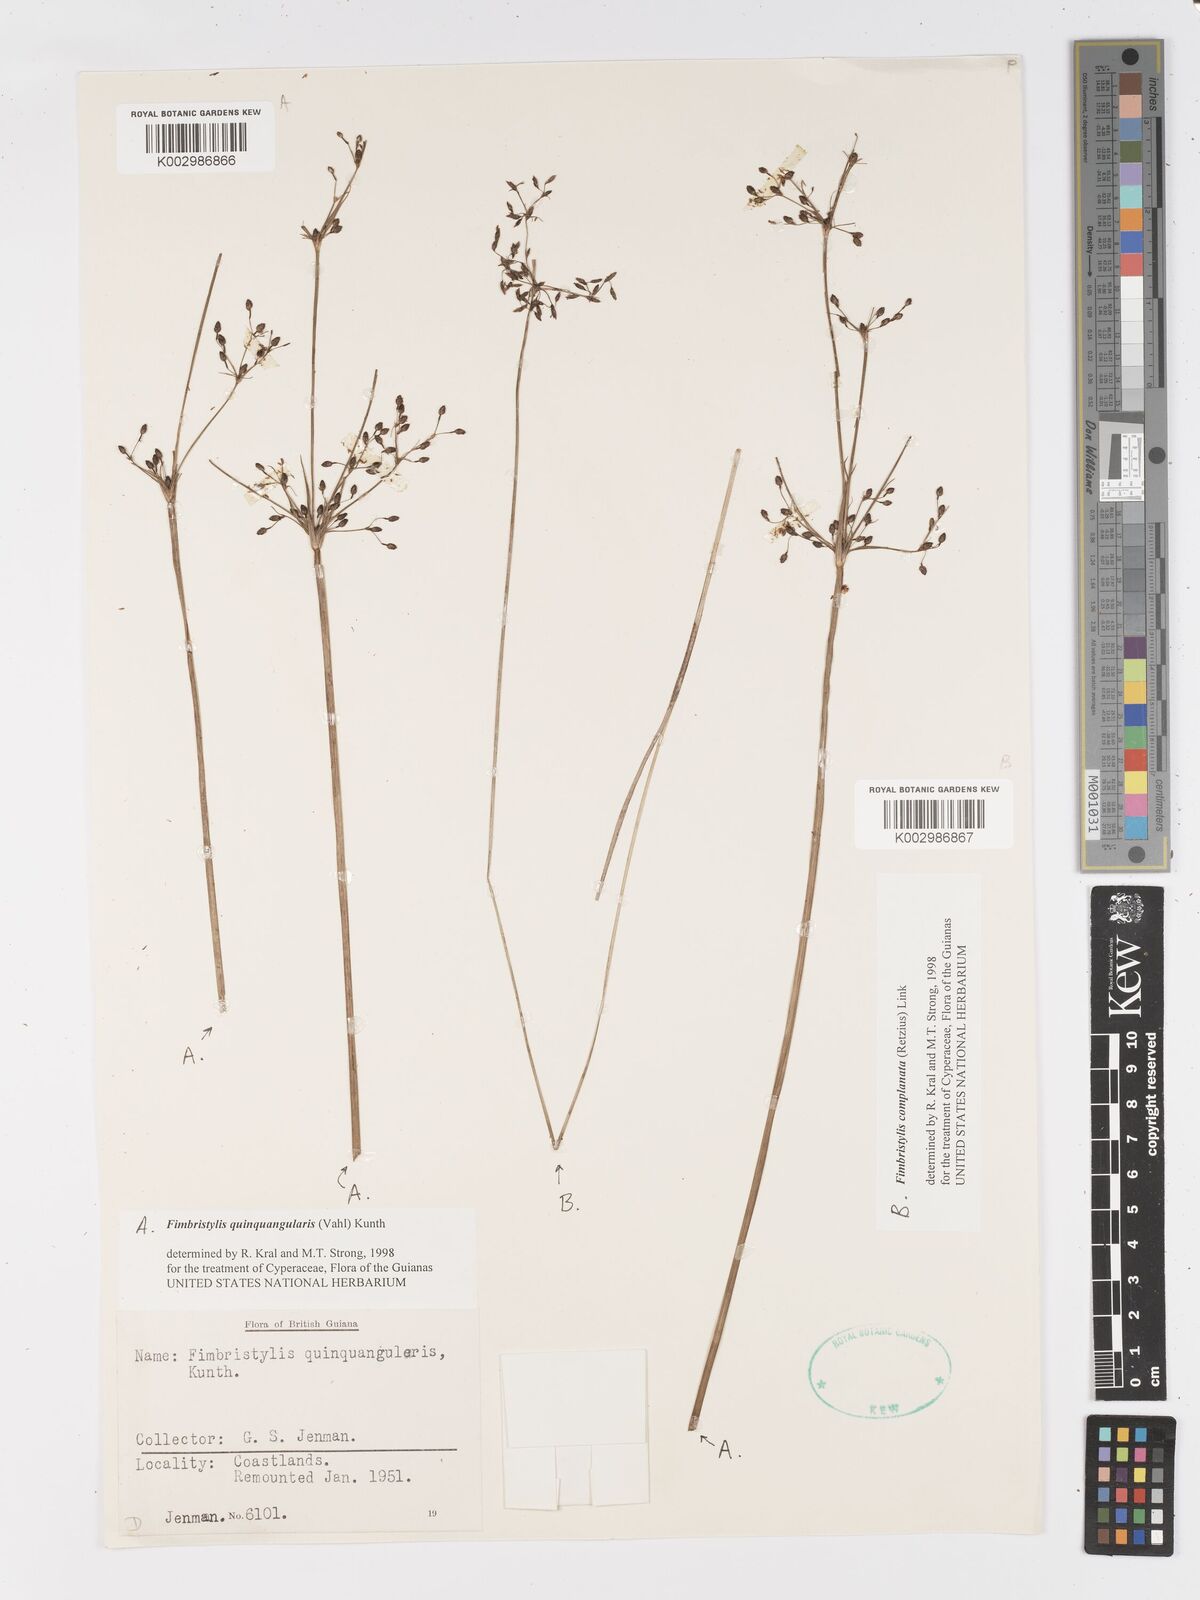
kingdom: Plantae
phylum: Tracheophyta
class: Liliopsida
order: Poales
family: Cyperaceae
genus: Fimbristylis
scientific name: Fimbristylis quinquangularis
